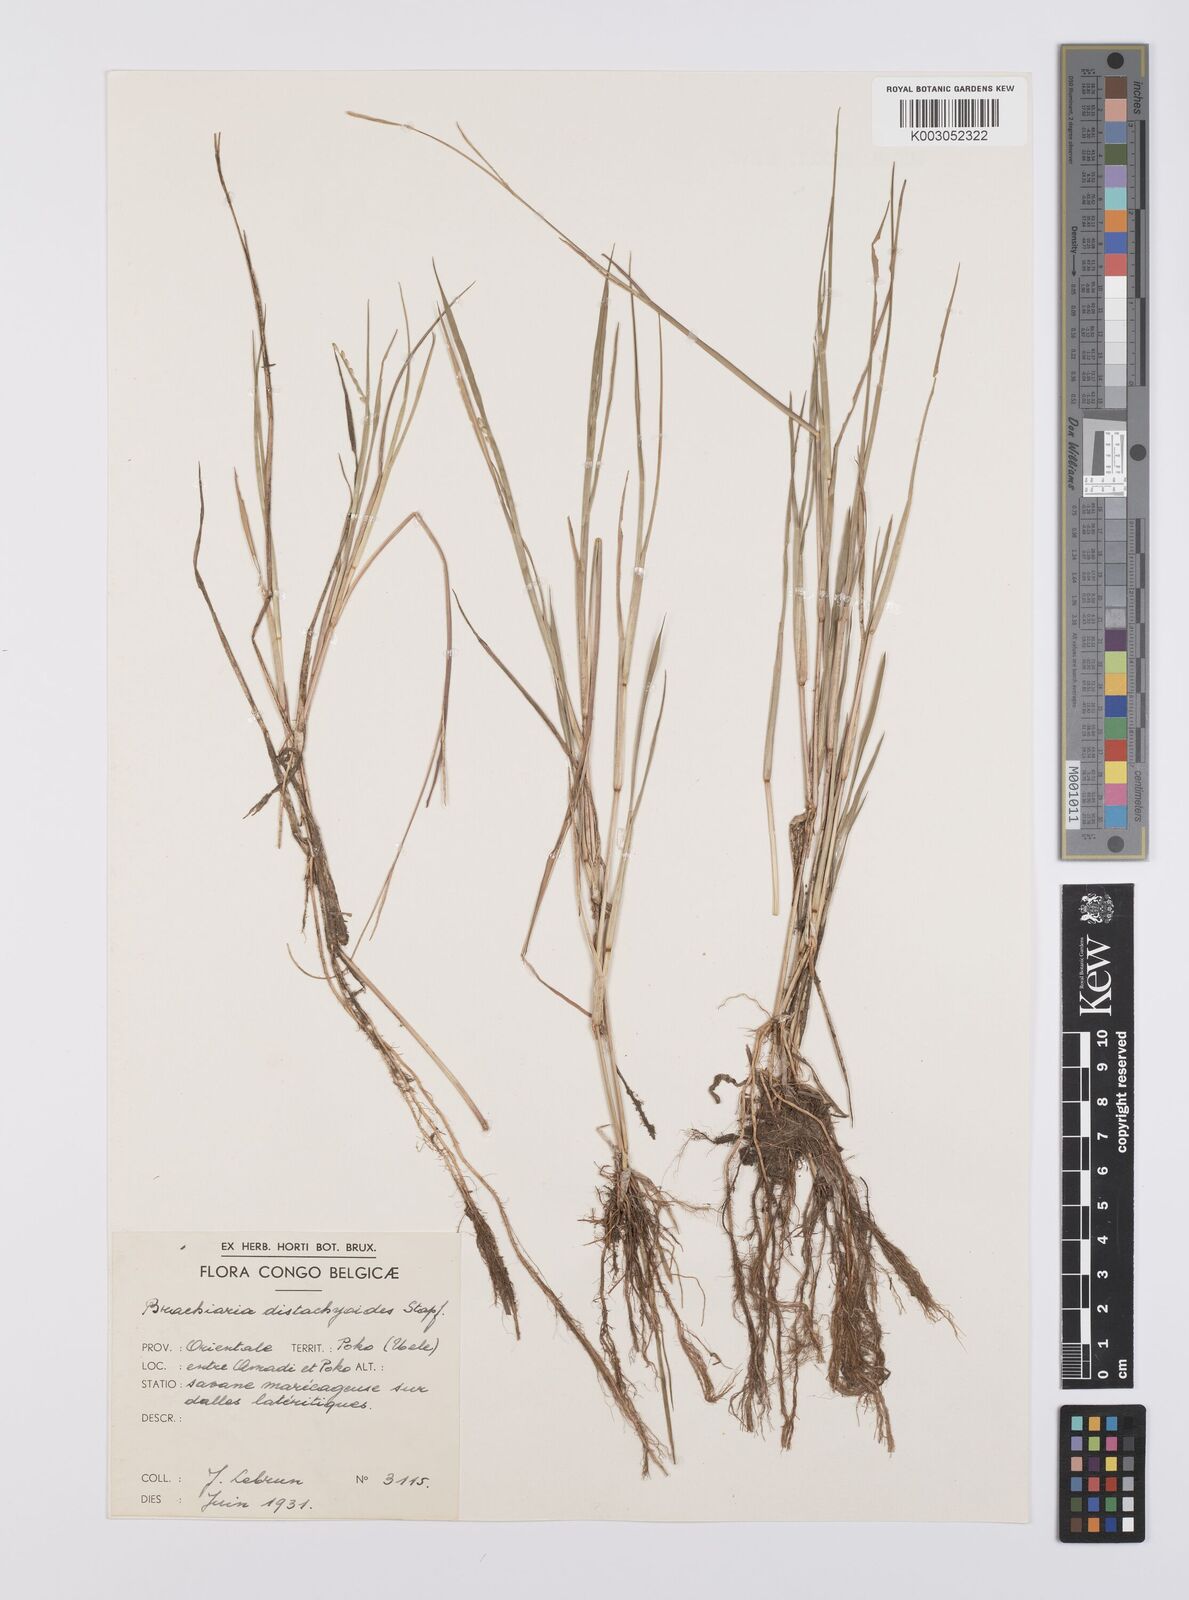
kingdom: Plantae
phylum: Tracheophyta
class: Liliopsida
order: Poales
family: Poaceae
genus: Urochloa
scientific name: Urochloa distachyoides
